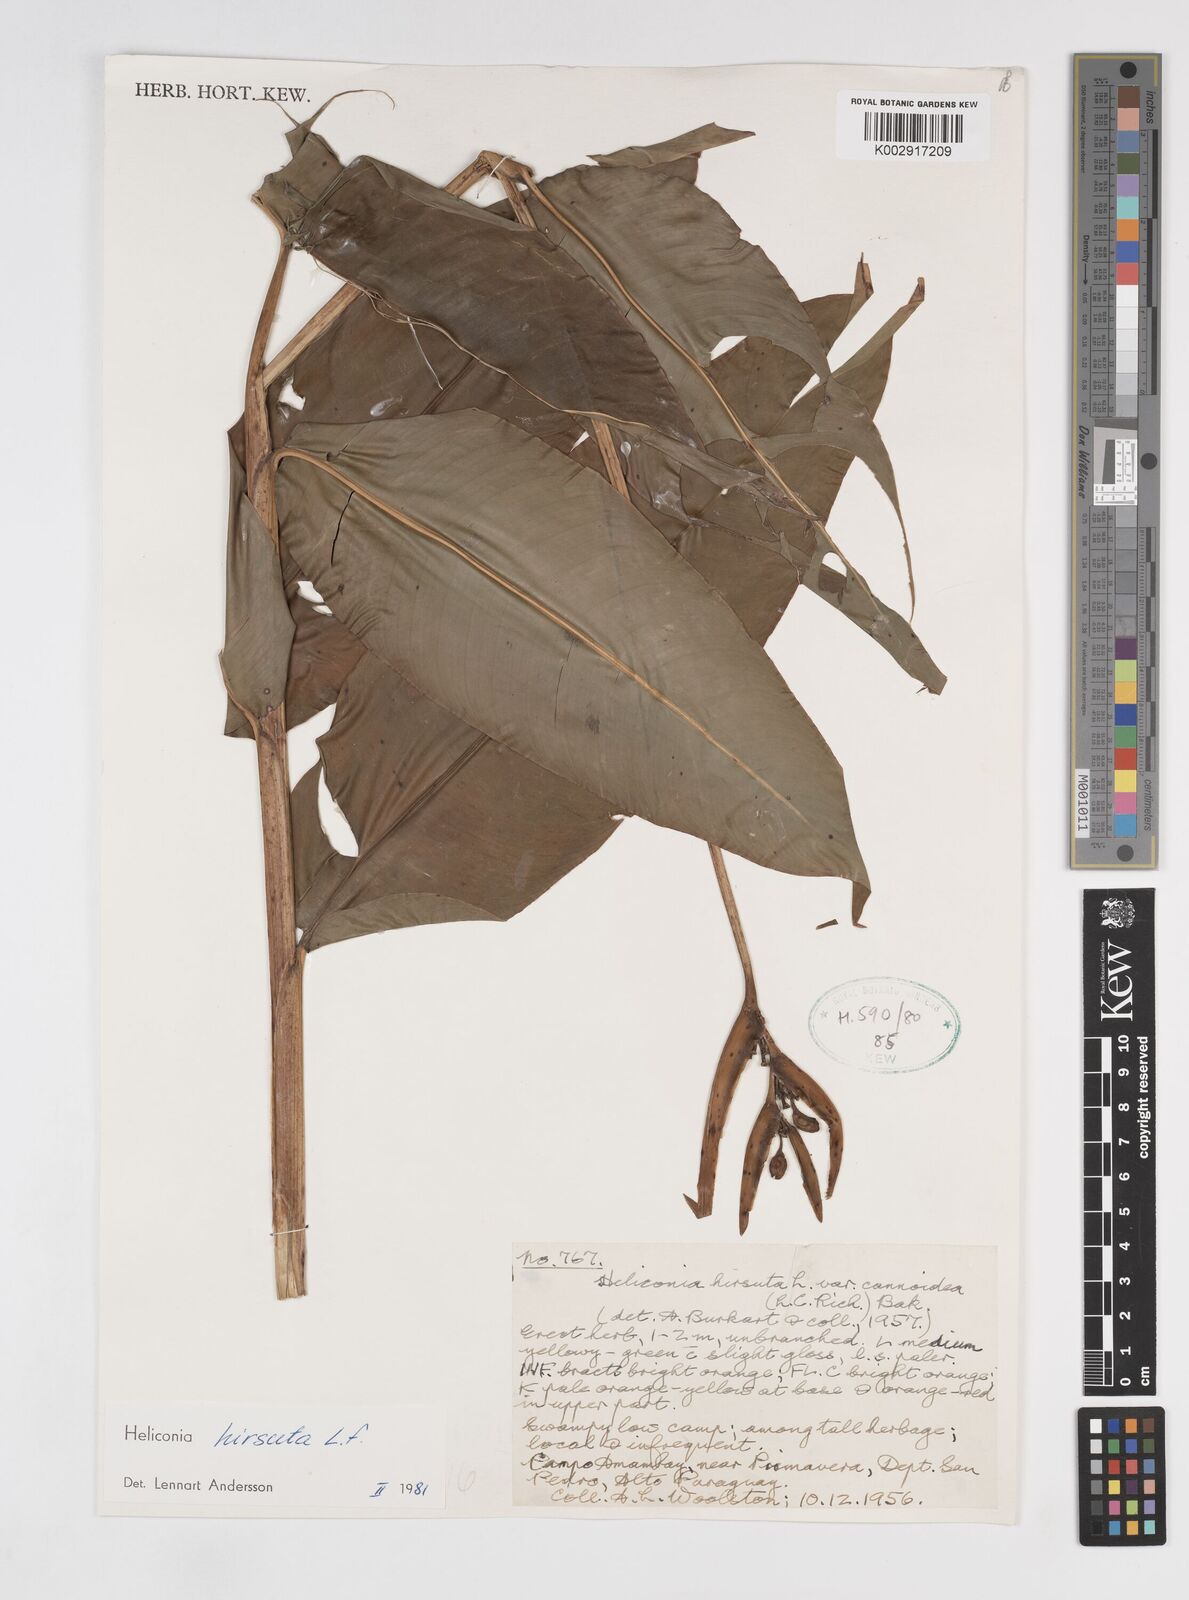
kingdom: Plantae
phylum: Tracheophyta
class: Liliopsida
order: Zingiberales
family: Heliconiaceae
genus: Heliconia
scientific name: Heliconia hirsuta
